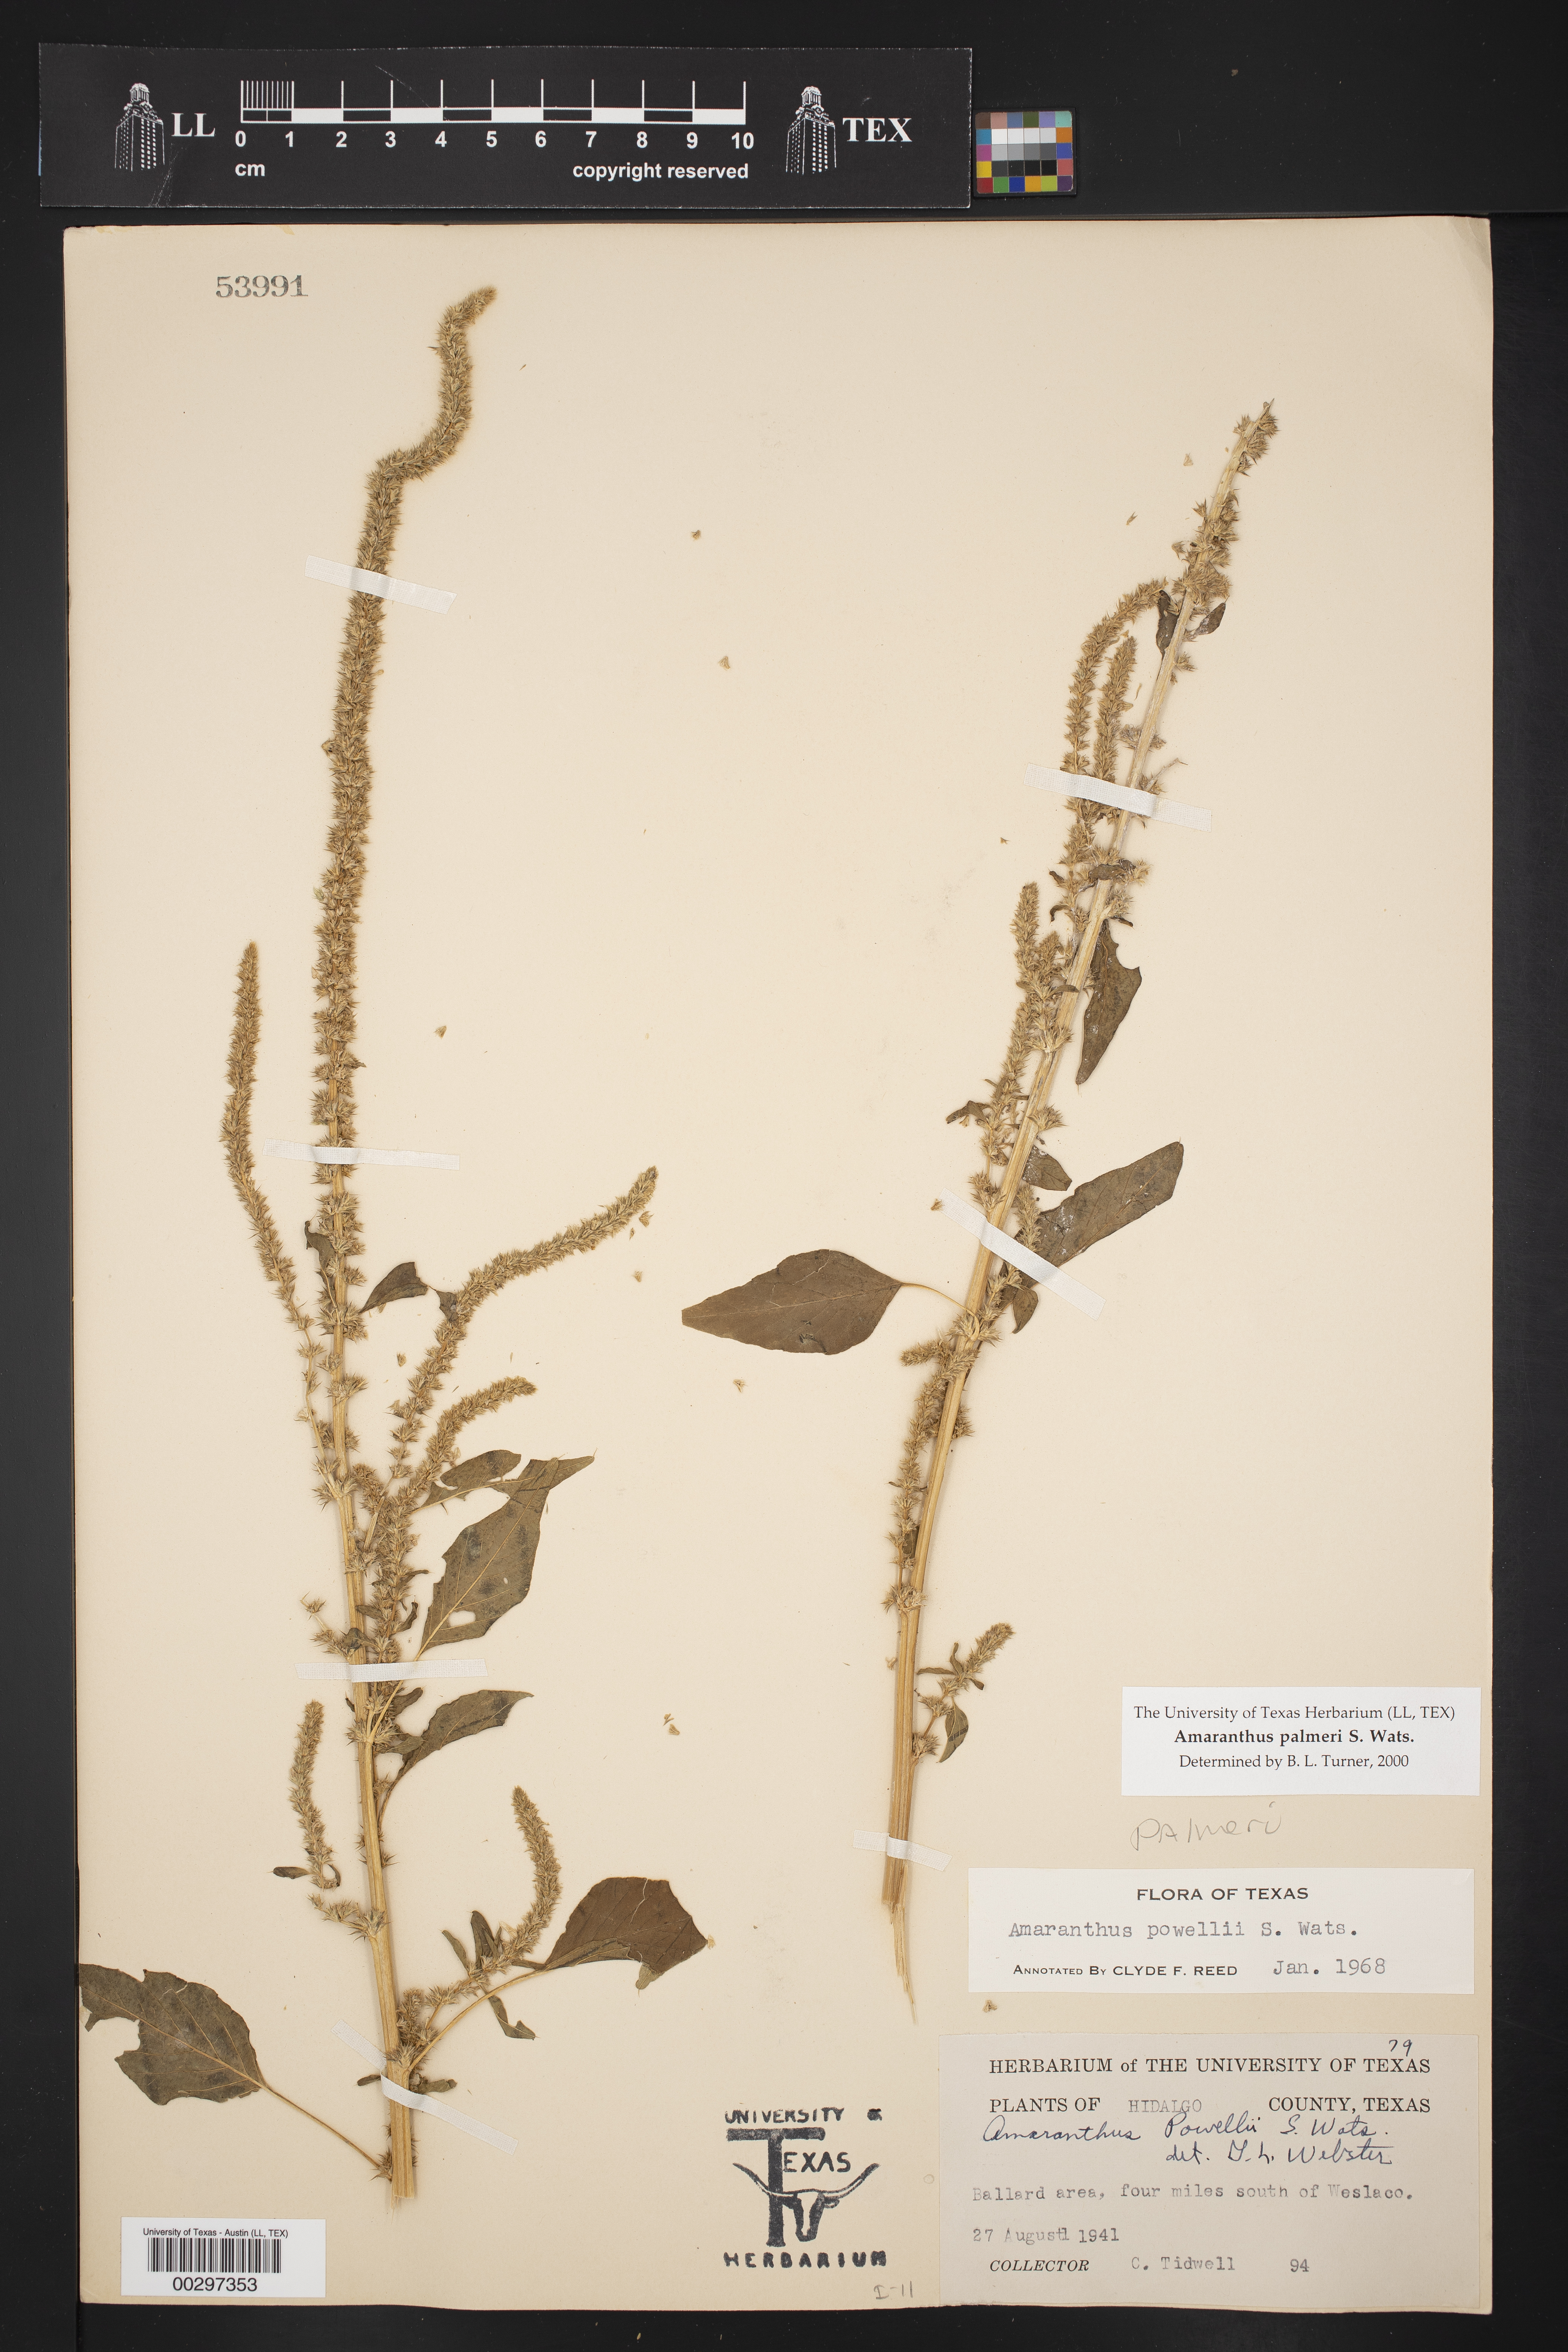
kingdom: Plantae
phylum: Tracheophyta
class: Magnoliopsida
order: Caryophyllales
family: Amaranthaceae
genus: Amaranthus
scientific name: Amaranthus palmeri
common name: Dioecious amaranth
